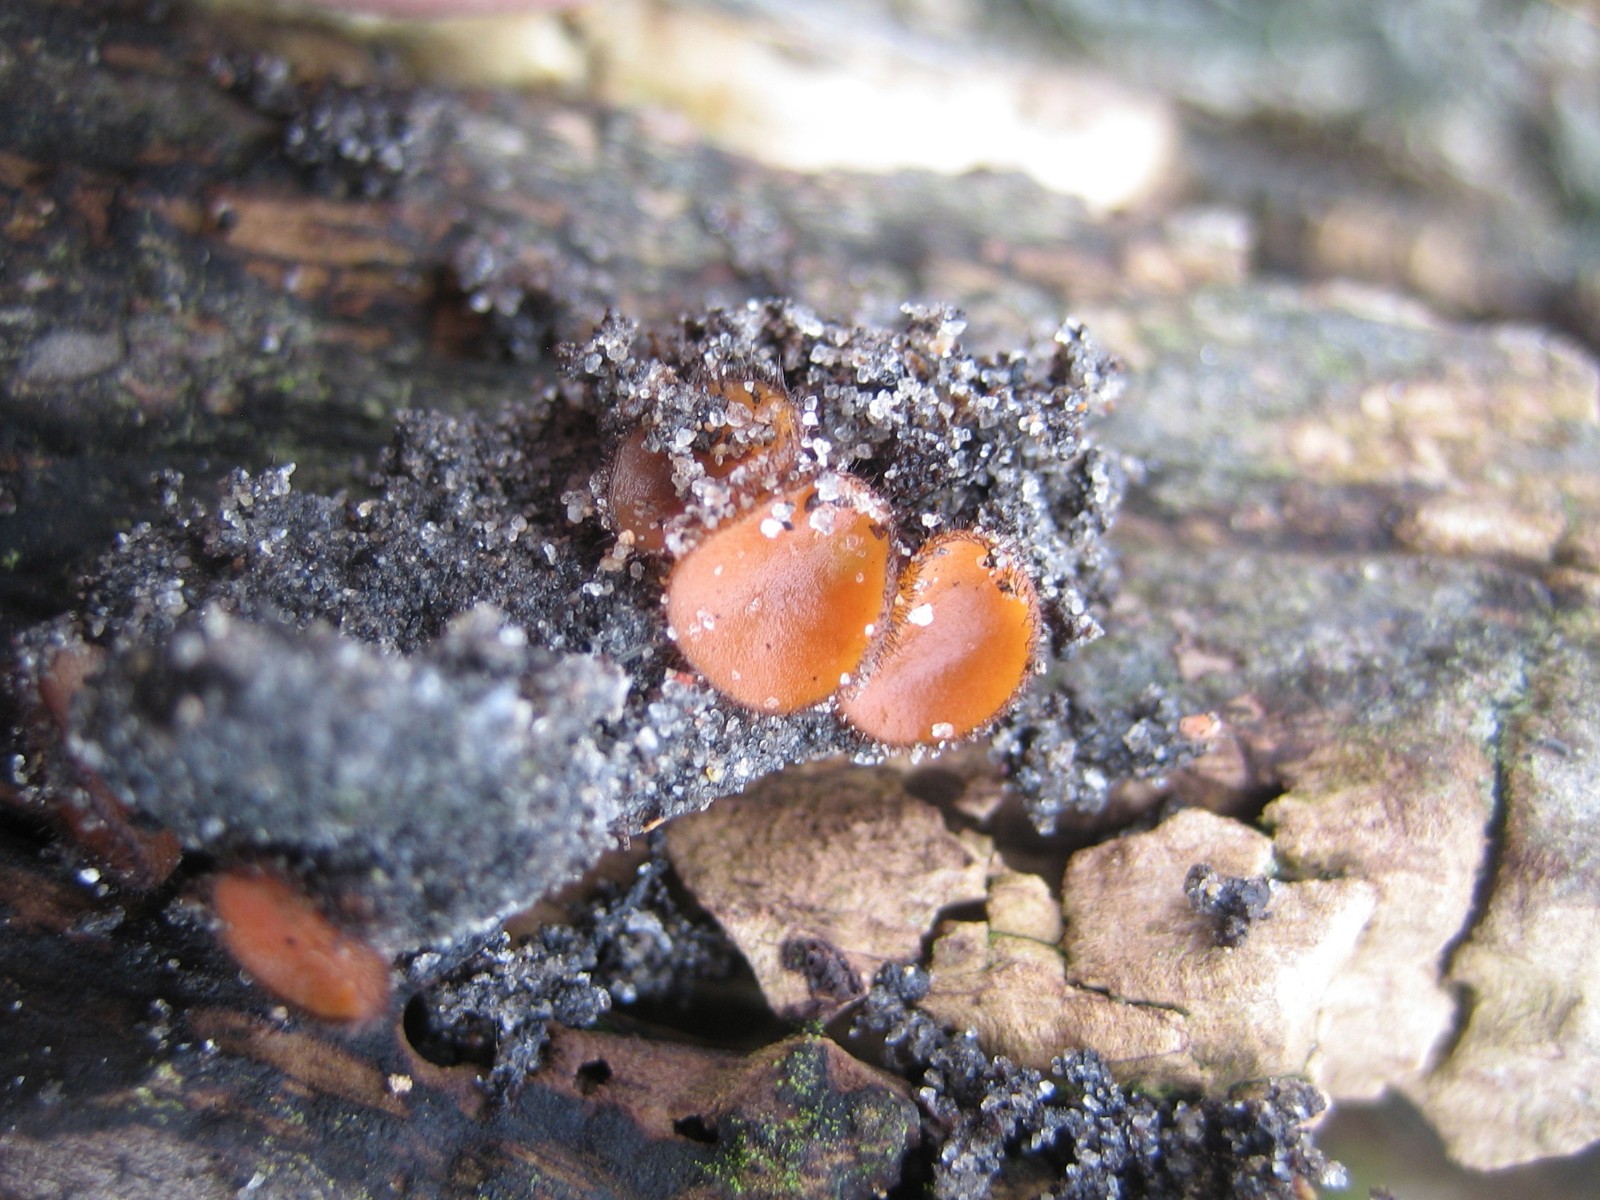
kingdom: Fungi
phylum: Ascomycota
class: Pezizomycetes
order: Pezizales
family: Pyronemataceae
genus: Scutellinia
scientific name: Scutellinia
